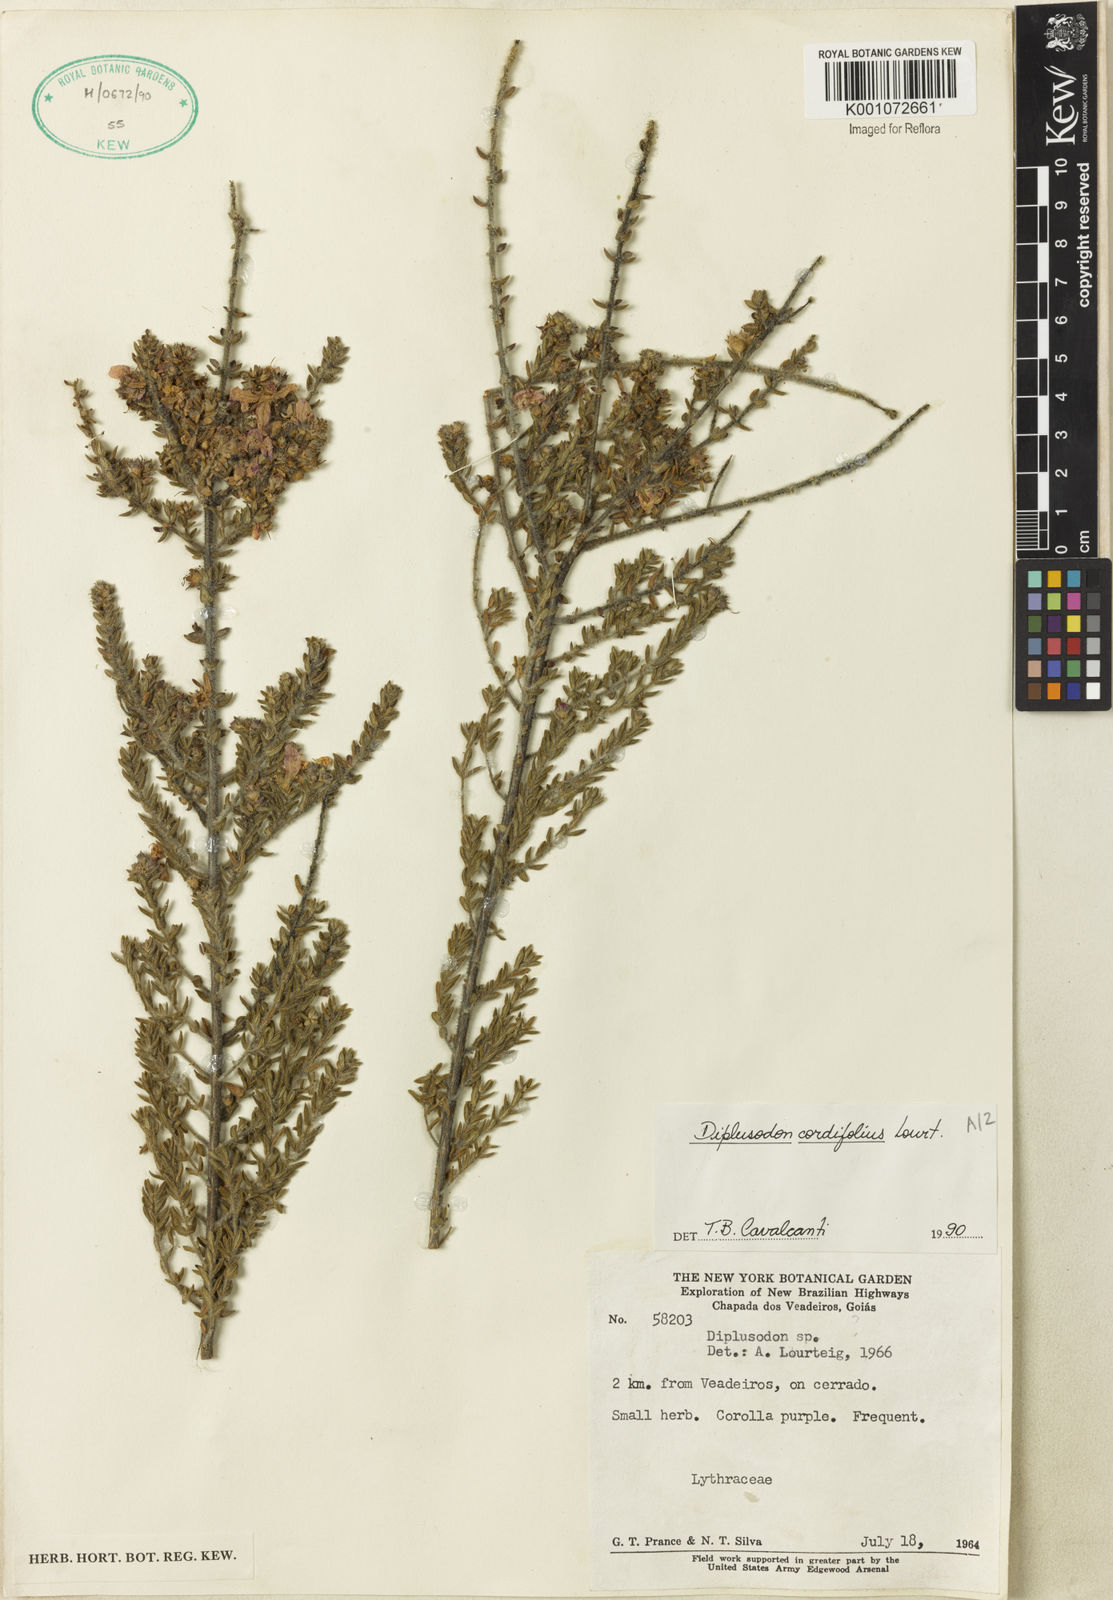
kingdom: Plantae
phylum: Tracheophyta
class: Magnoliopsida
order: Myrtales
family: Lythraceae
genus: Diplusodon
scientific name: Diplusodon cordifolius
